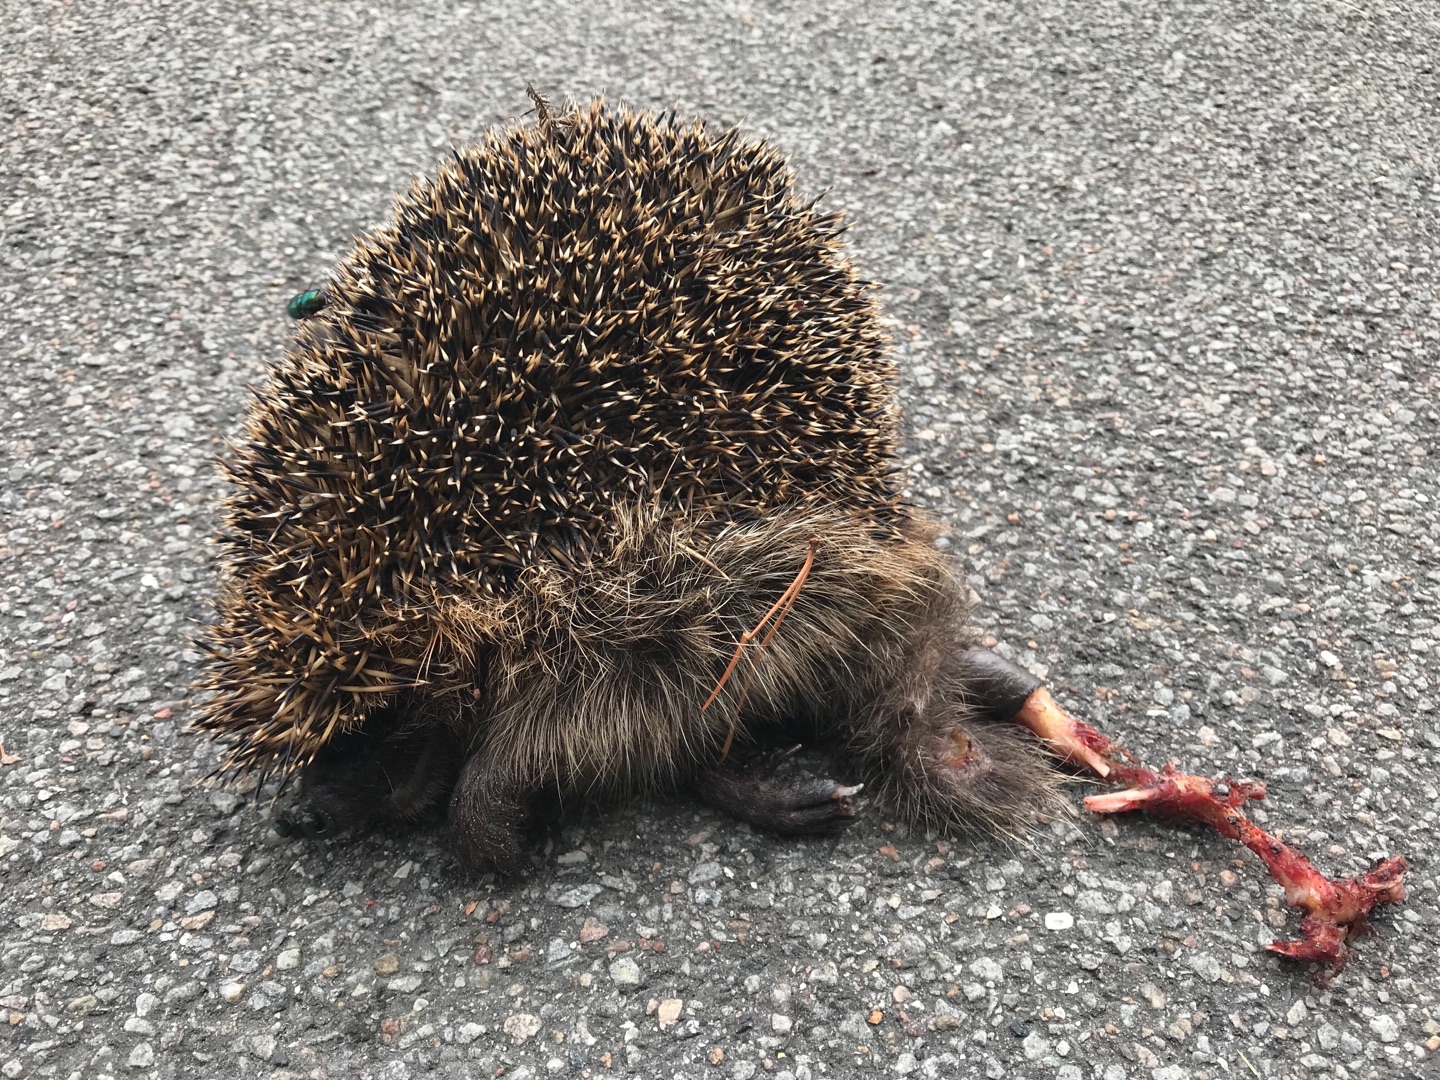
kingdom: Animalia
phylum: Chordata
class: Mammalia
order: Erinaceomorpha
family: Erinaceidae
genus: Erinaceus
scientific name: Erinaceus europaeus
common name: Pindsvin
